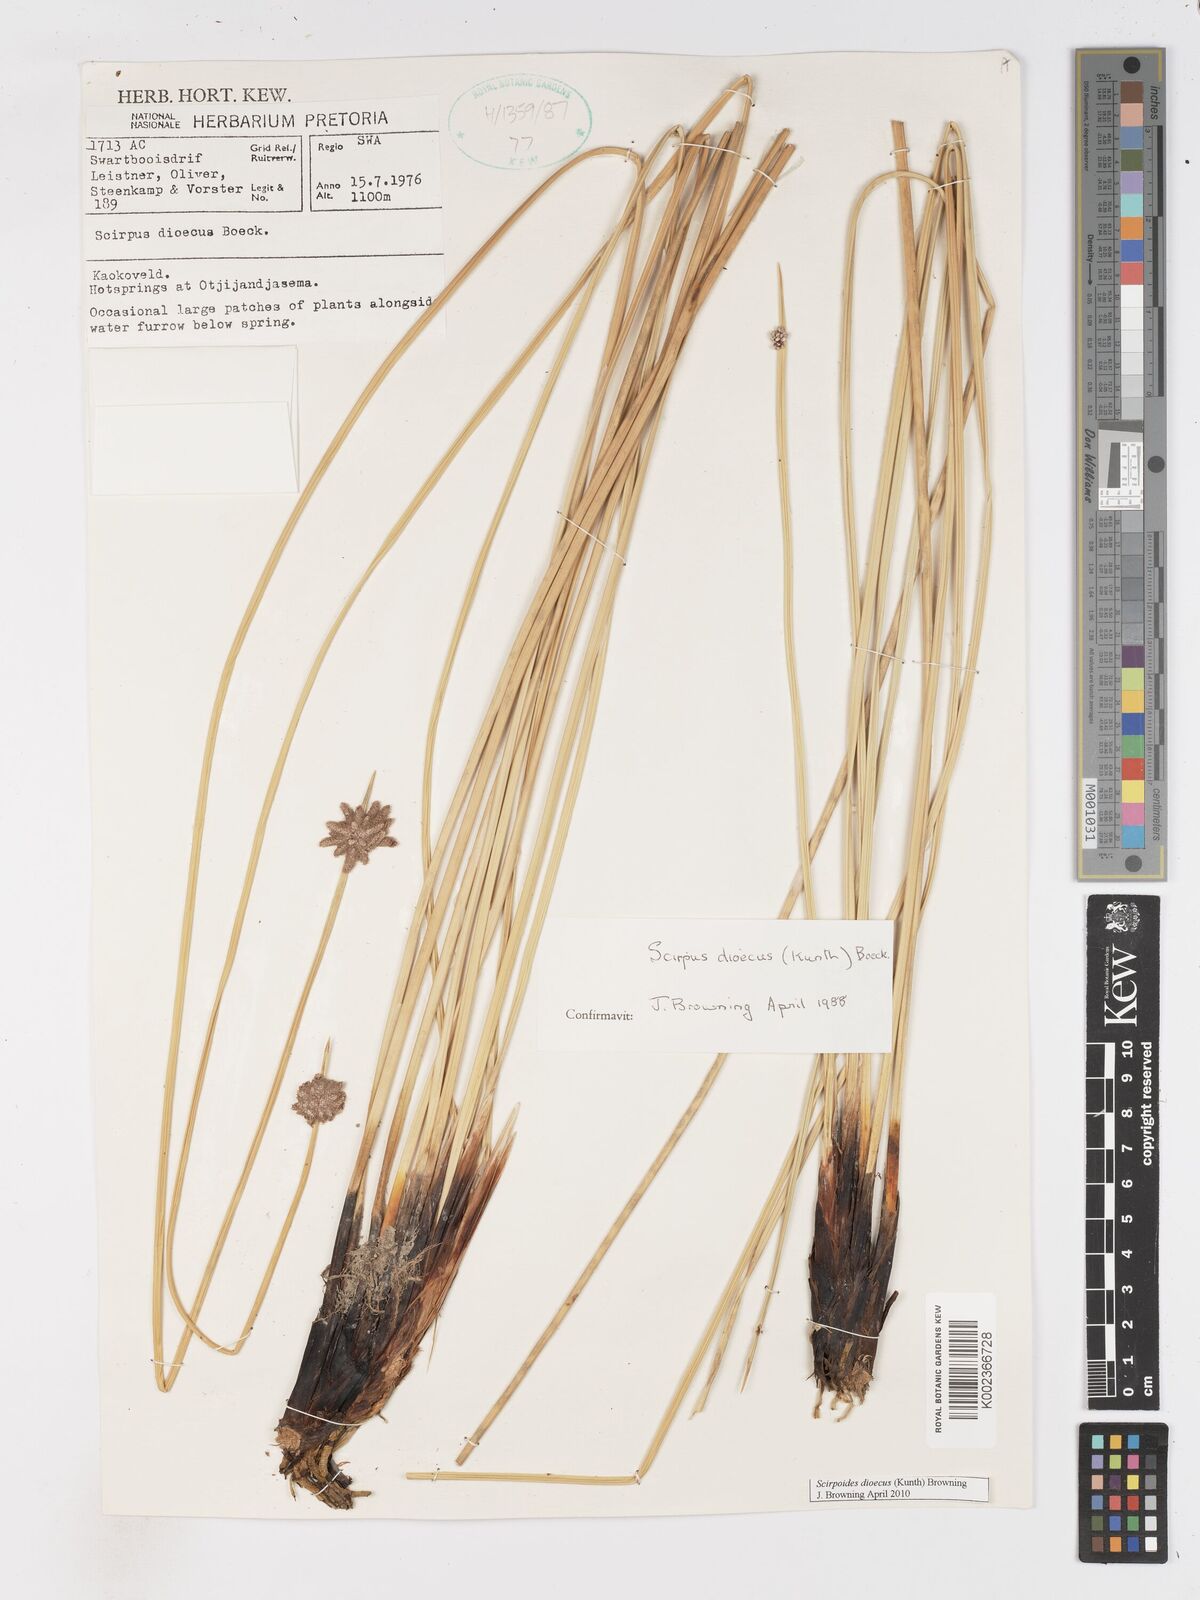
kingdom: Plantae
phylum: Tracheophyta
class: Liliopsida
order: Poales
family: Cyperaceae
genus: Scirpoides
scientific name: Scirpoides
